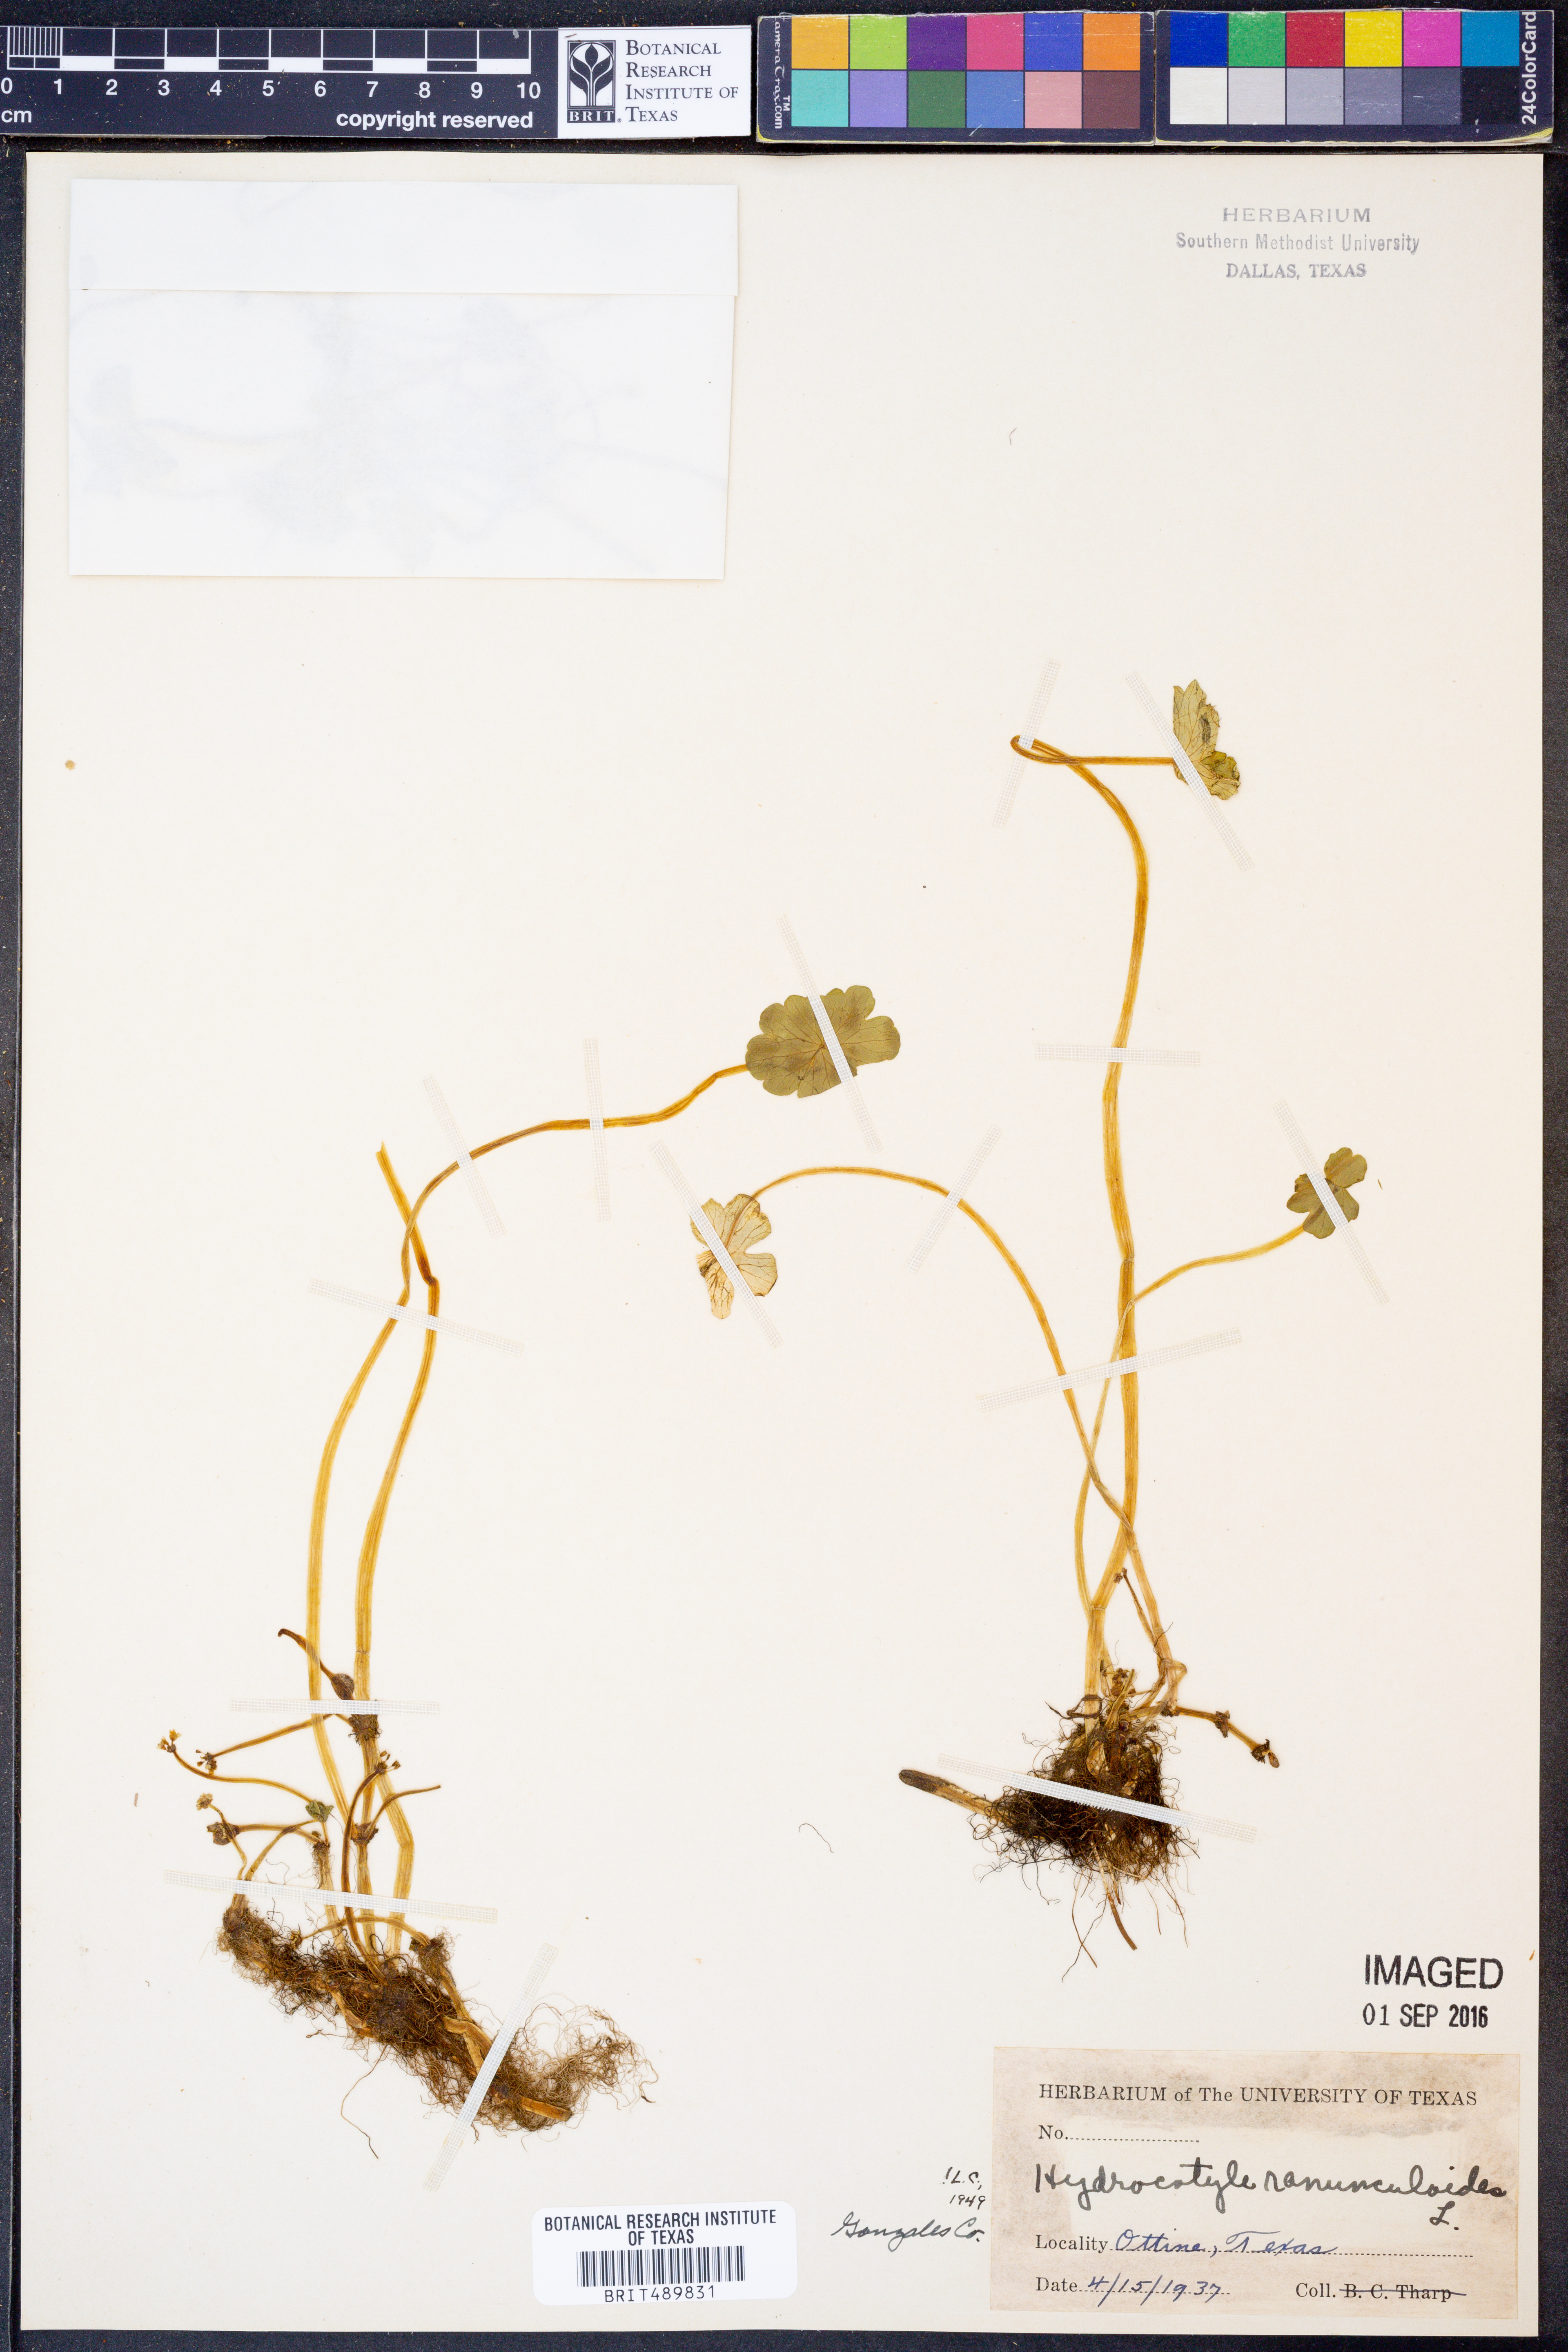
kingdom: Plantae
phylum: Tracheophyta
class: Magnoliopsida
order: Apiales
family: Araliaceae
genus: Hydrocotyle
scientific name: Hydrocotyle ranunculoides
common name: Floating pennywort
